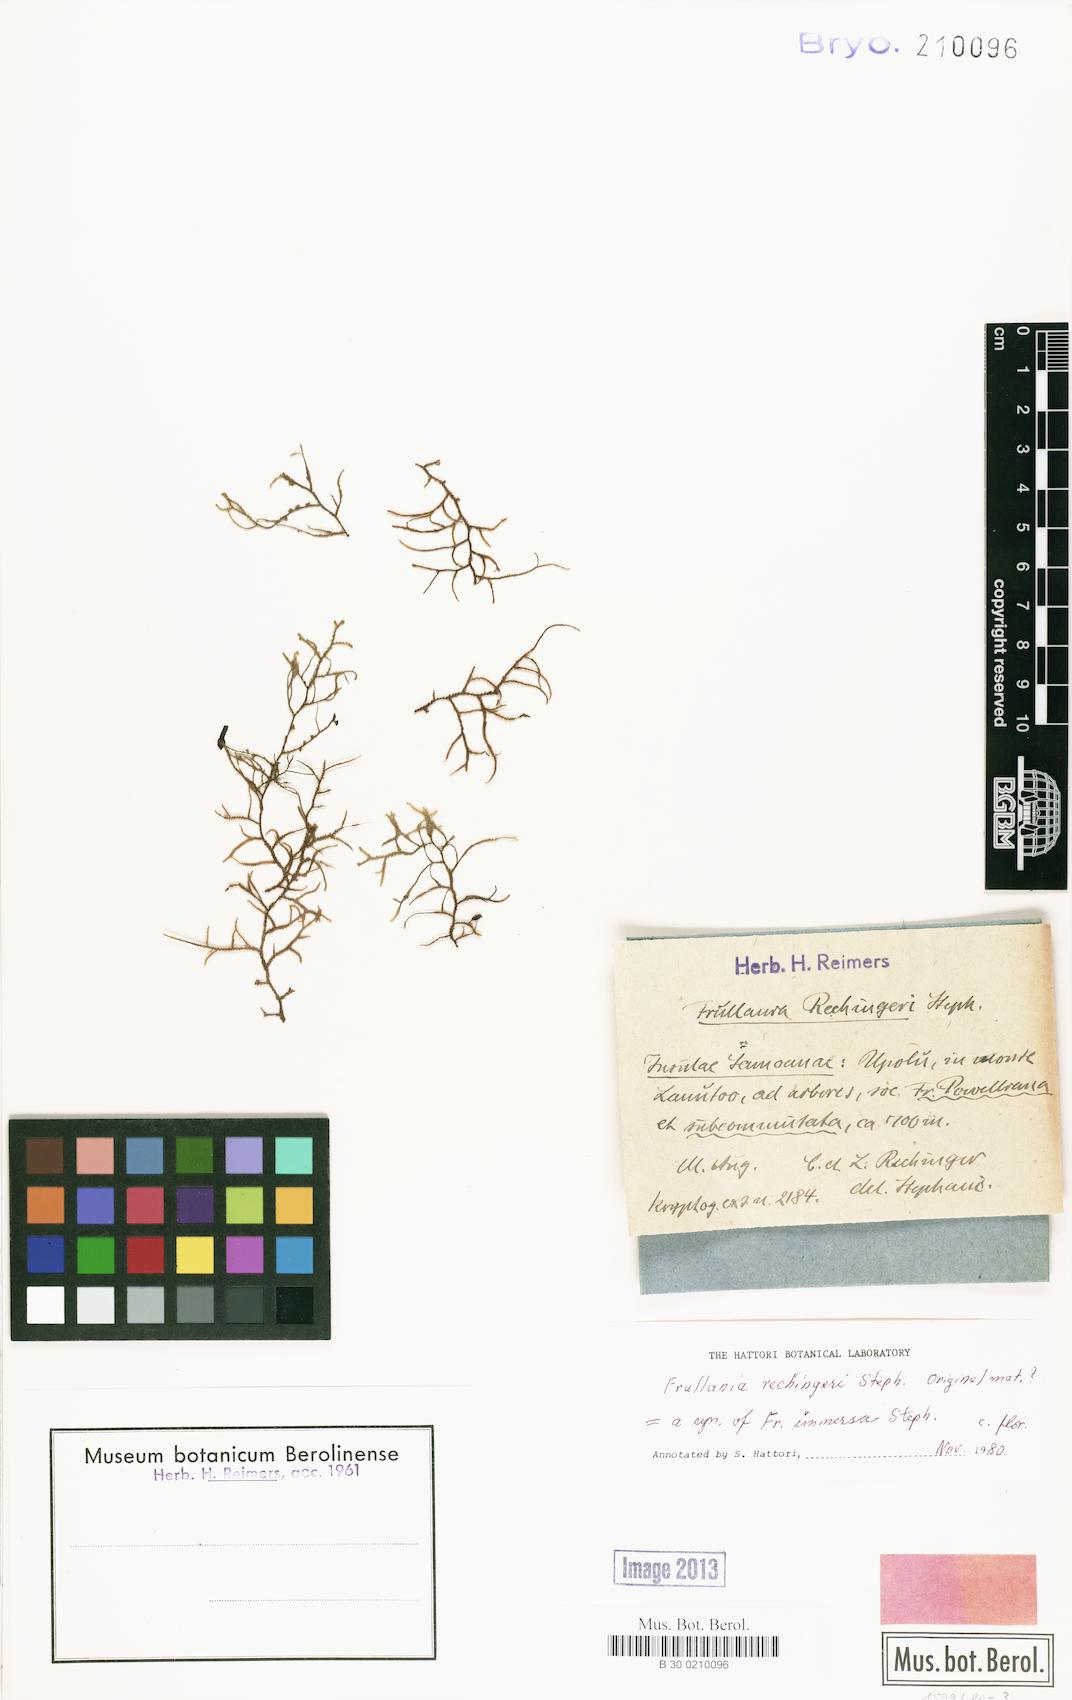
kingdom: Plantae
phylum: Marchantiophyta
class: Jungermanniopsida
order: Porellales
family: Frullaniaceae
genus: Frullania
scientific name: Frullania immersa
